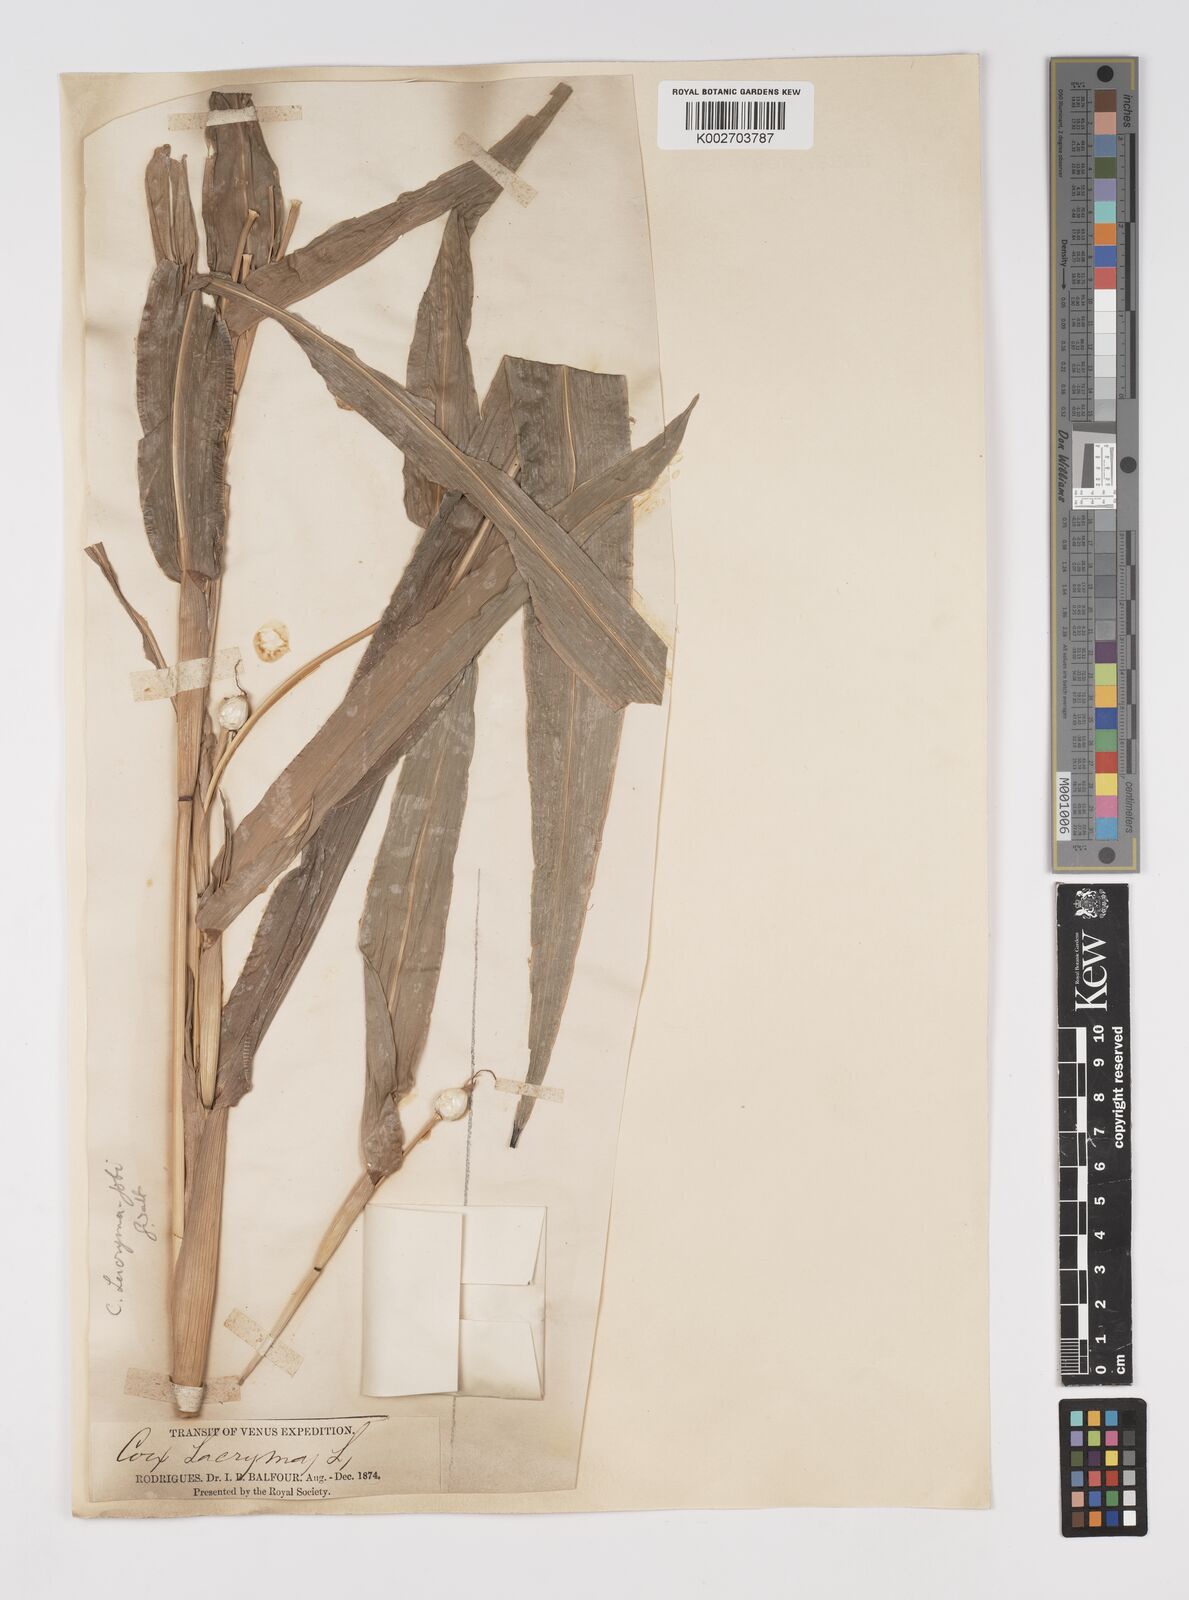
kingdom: Plantae
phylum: Tracheophyta
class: Liliopsida
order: Poales
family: Poaceae
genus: Coix
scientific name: Coix lacryma-jobi
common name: Job's tears
